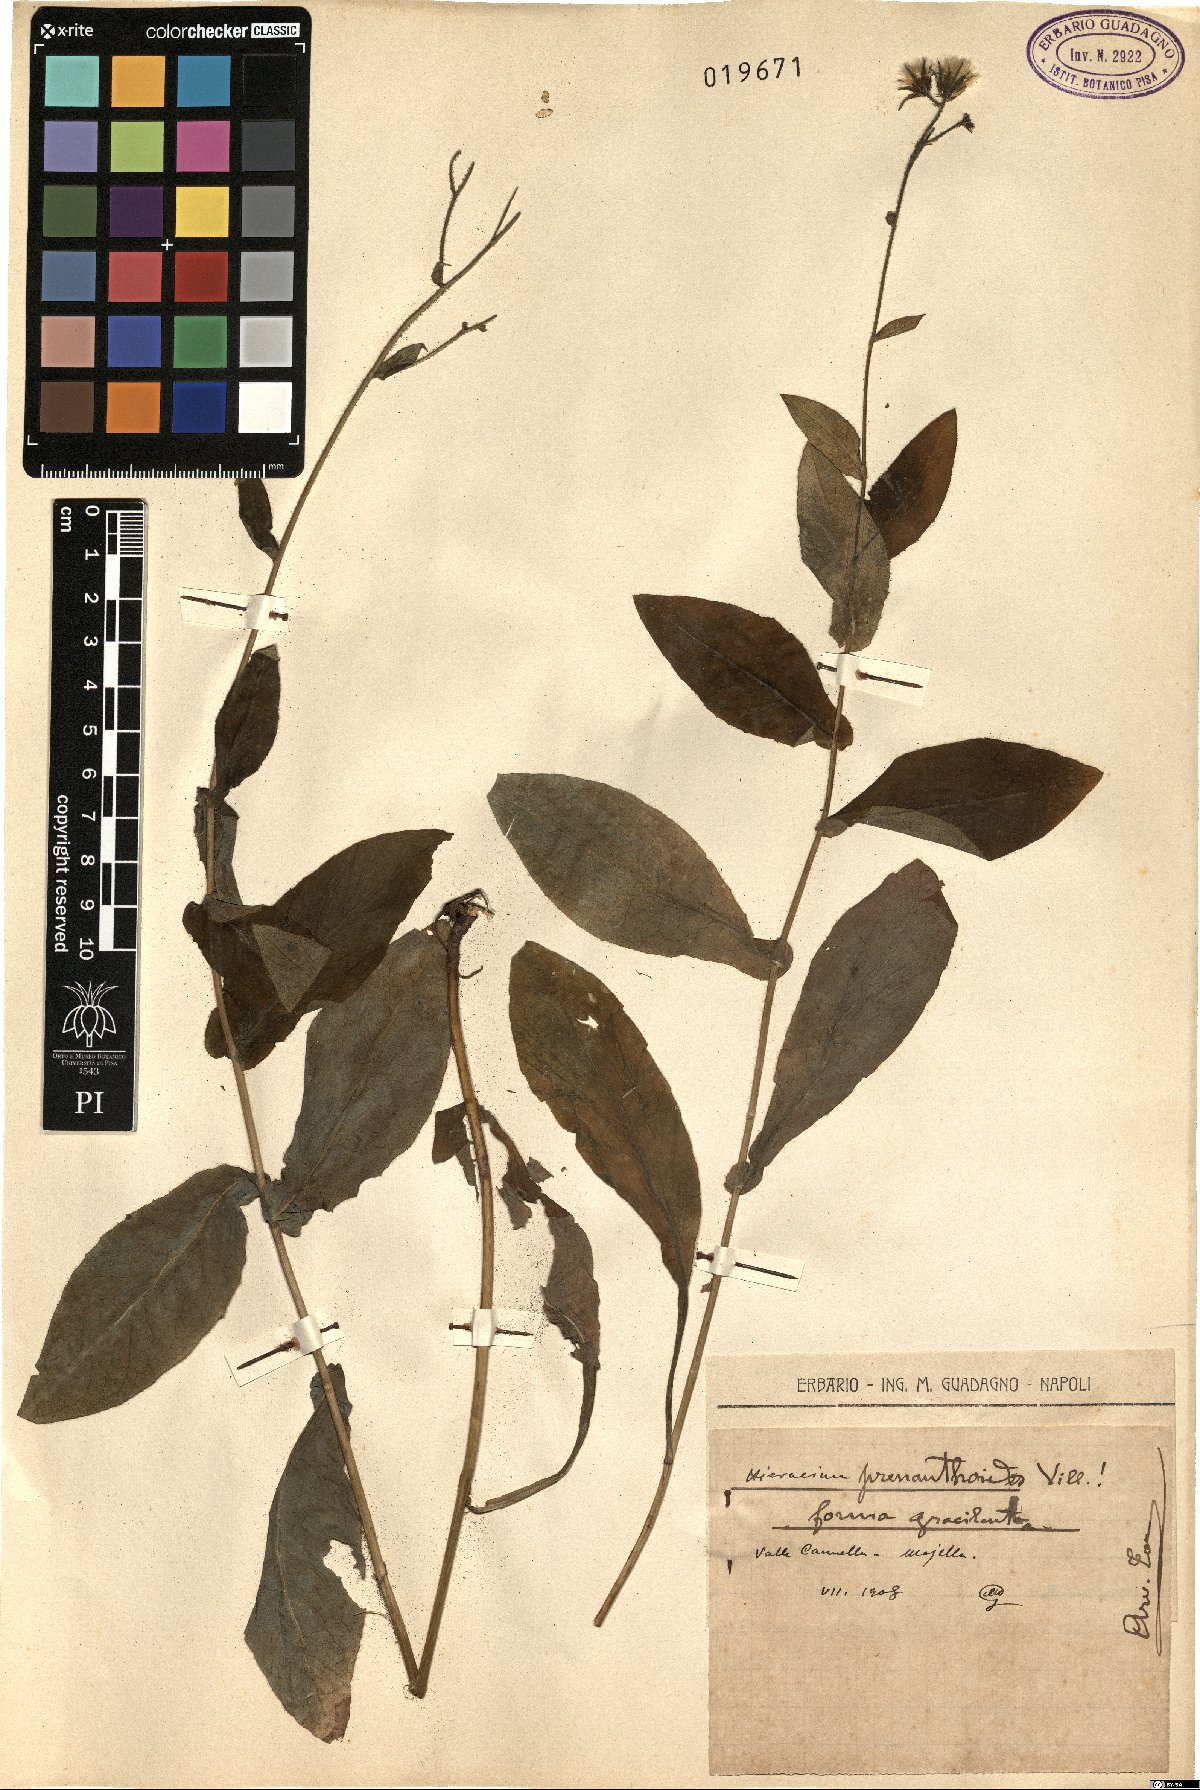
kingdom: Plantae
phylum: Tracheophyta
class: Magnoliopsida
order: Asterales
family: Asteraceae
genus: Hieracium
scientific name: Hieracium prenanthoides
